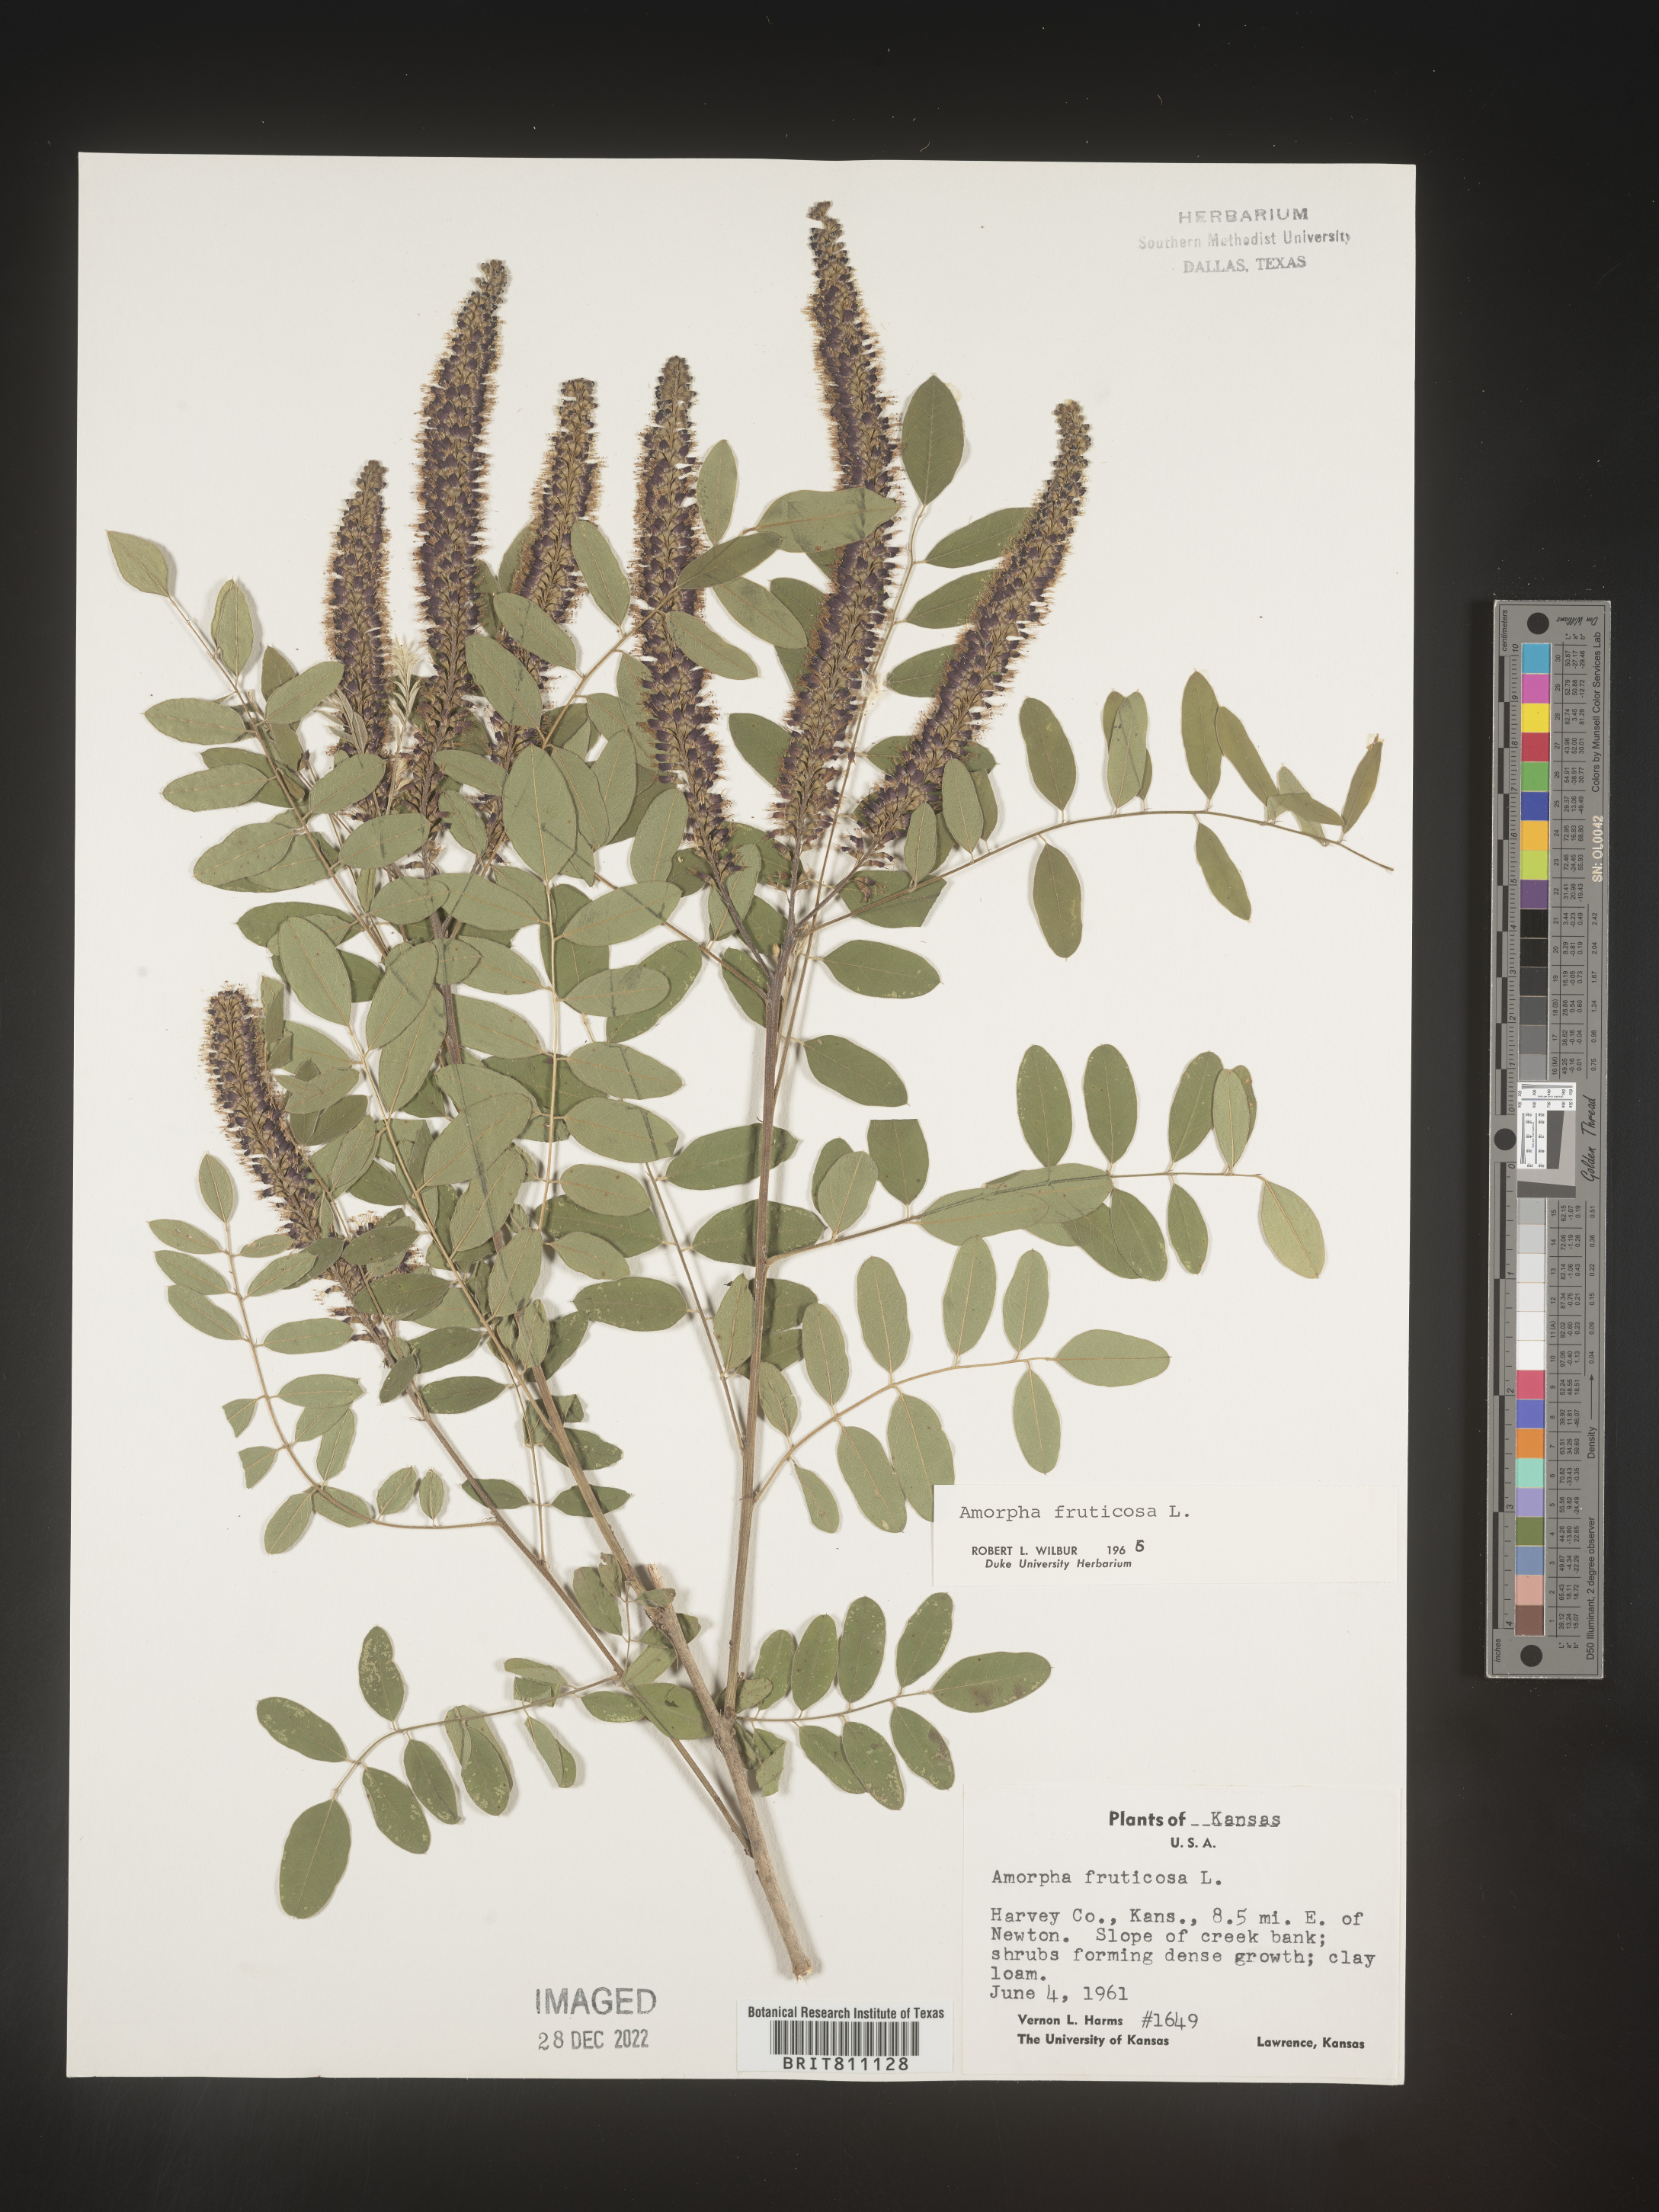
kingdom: Plantae
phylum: Tracheophyta
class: Magnoliopsida
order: Fabales
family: Fabaceae
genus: Amorpha
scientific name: Amorpha fruticosa
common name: False indigo
